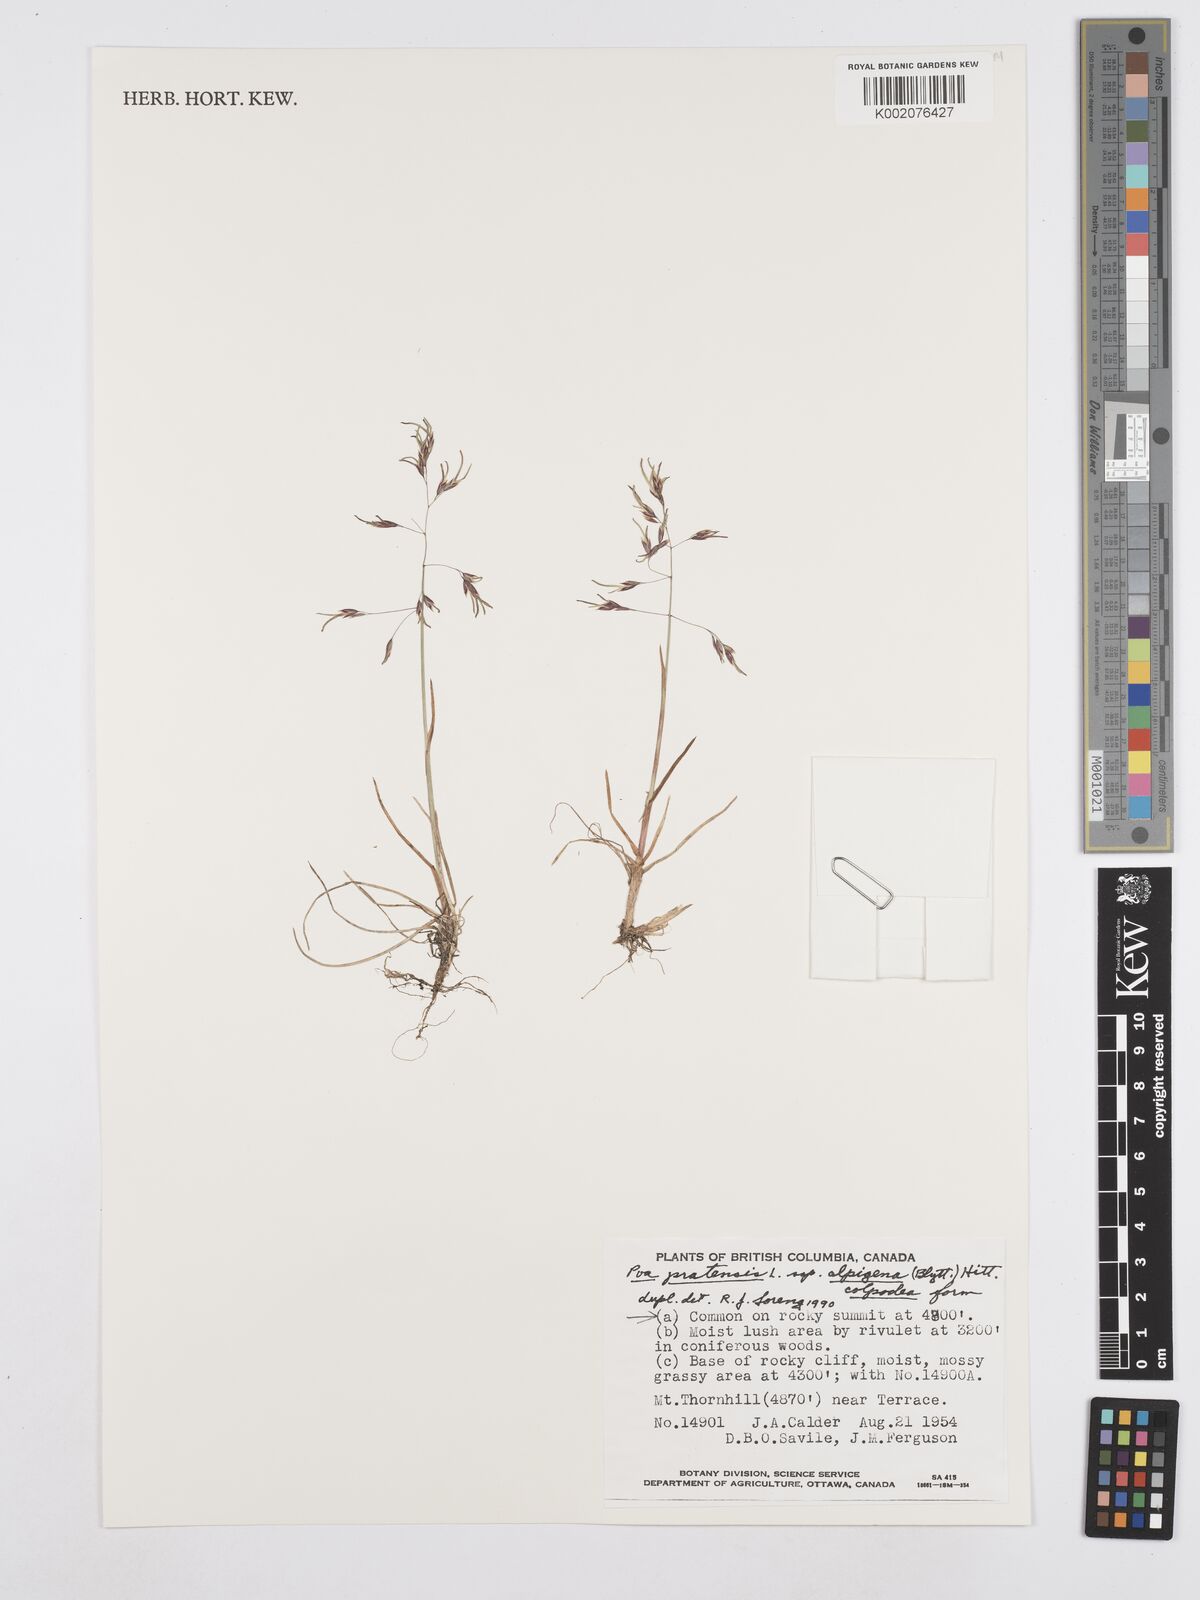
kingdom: Plantae
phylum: Tracheophyta
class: Liliopsida
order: Poales
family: Poaceae
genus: Poa
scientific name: Poa lindebergii
